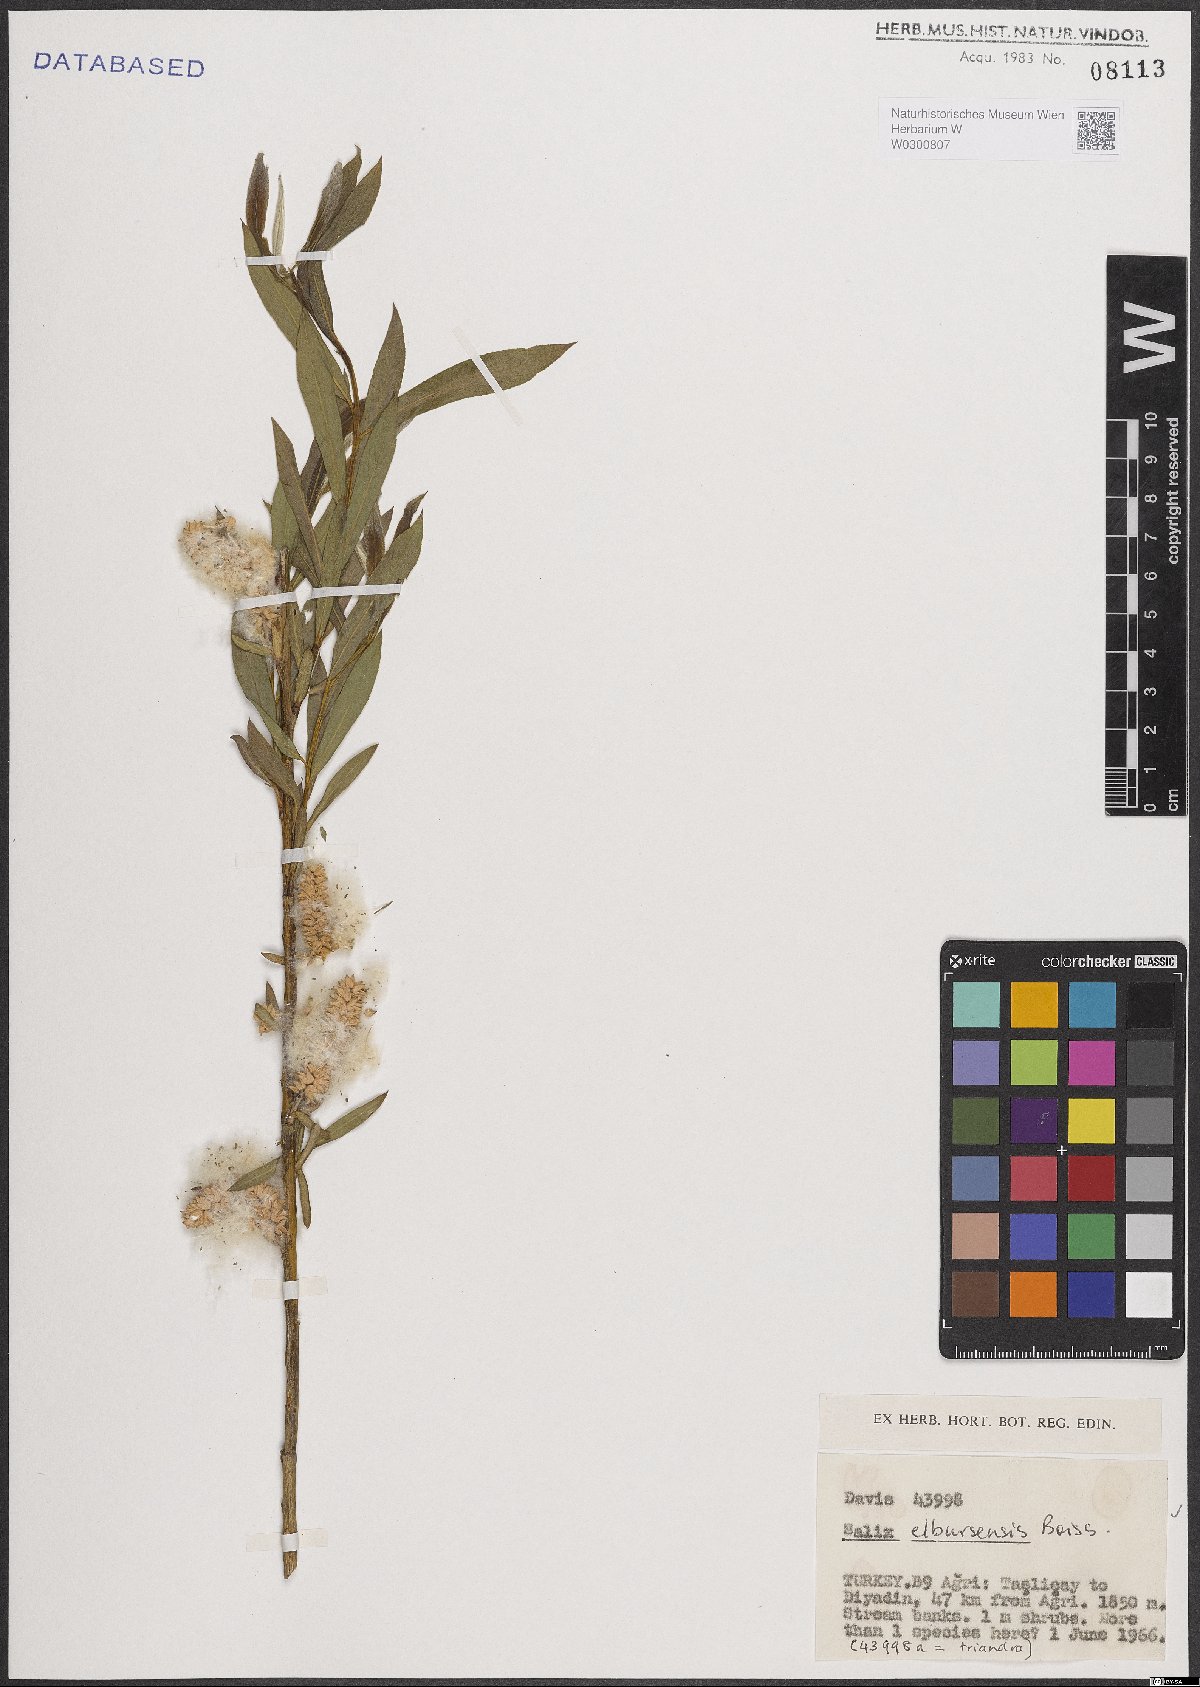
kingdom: Plantae
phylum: Tracheophyta
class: Magnoliopsida
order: Malpighiales
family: Salicaceae
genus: Salix
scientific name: Salix elbursensis
